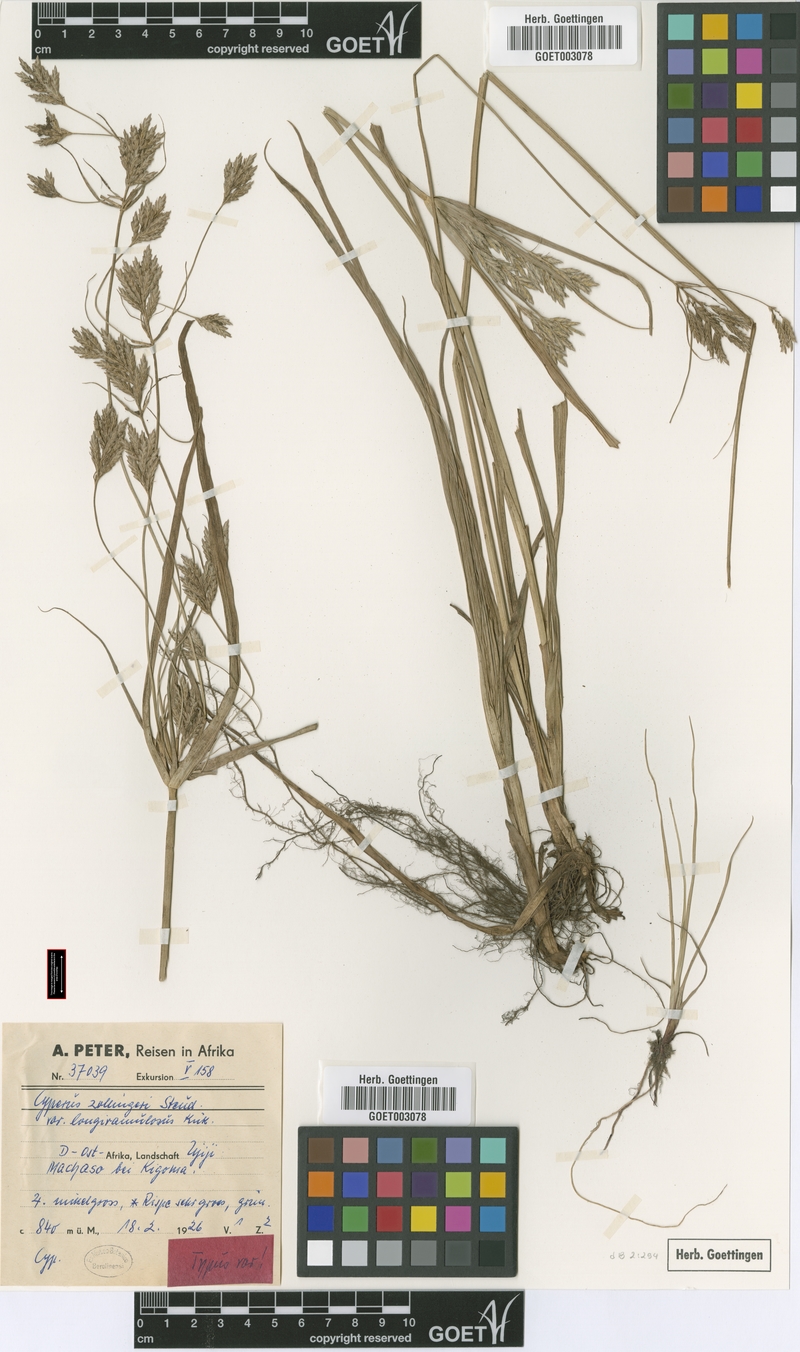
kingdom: Plantae
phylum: Tracheophyta
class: Liliopsida
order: Poales
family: Cyperaceae
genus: Cyperus
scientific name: Cyperus tenuiculmis
